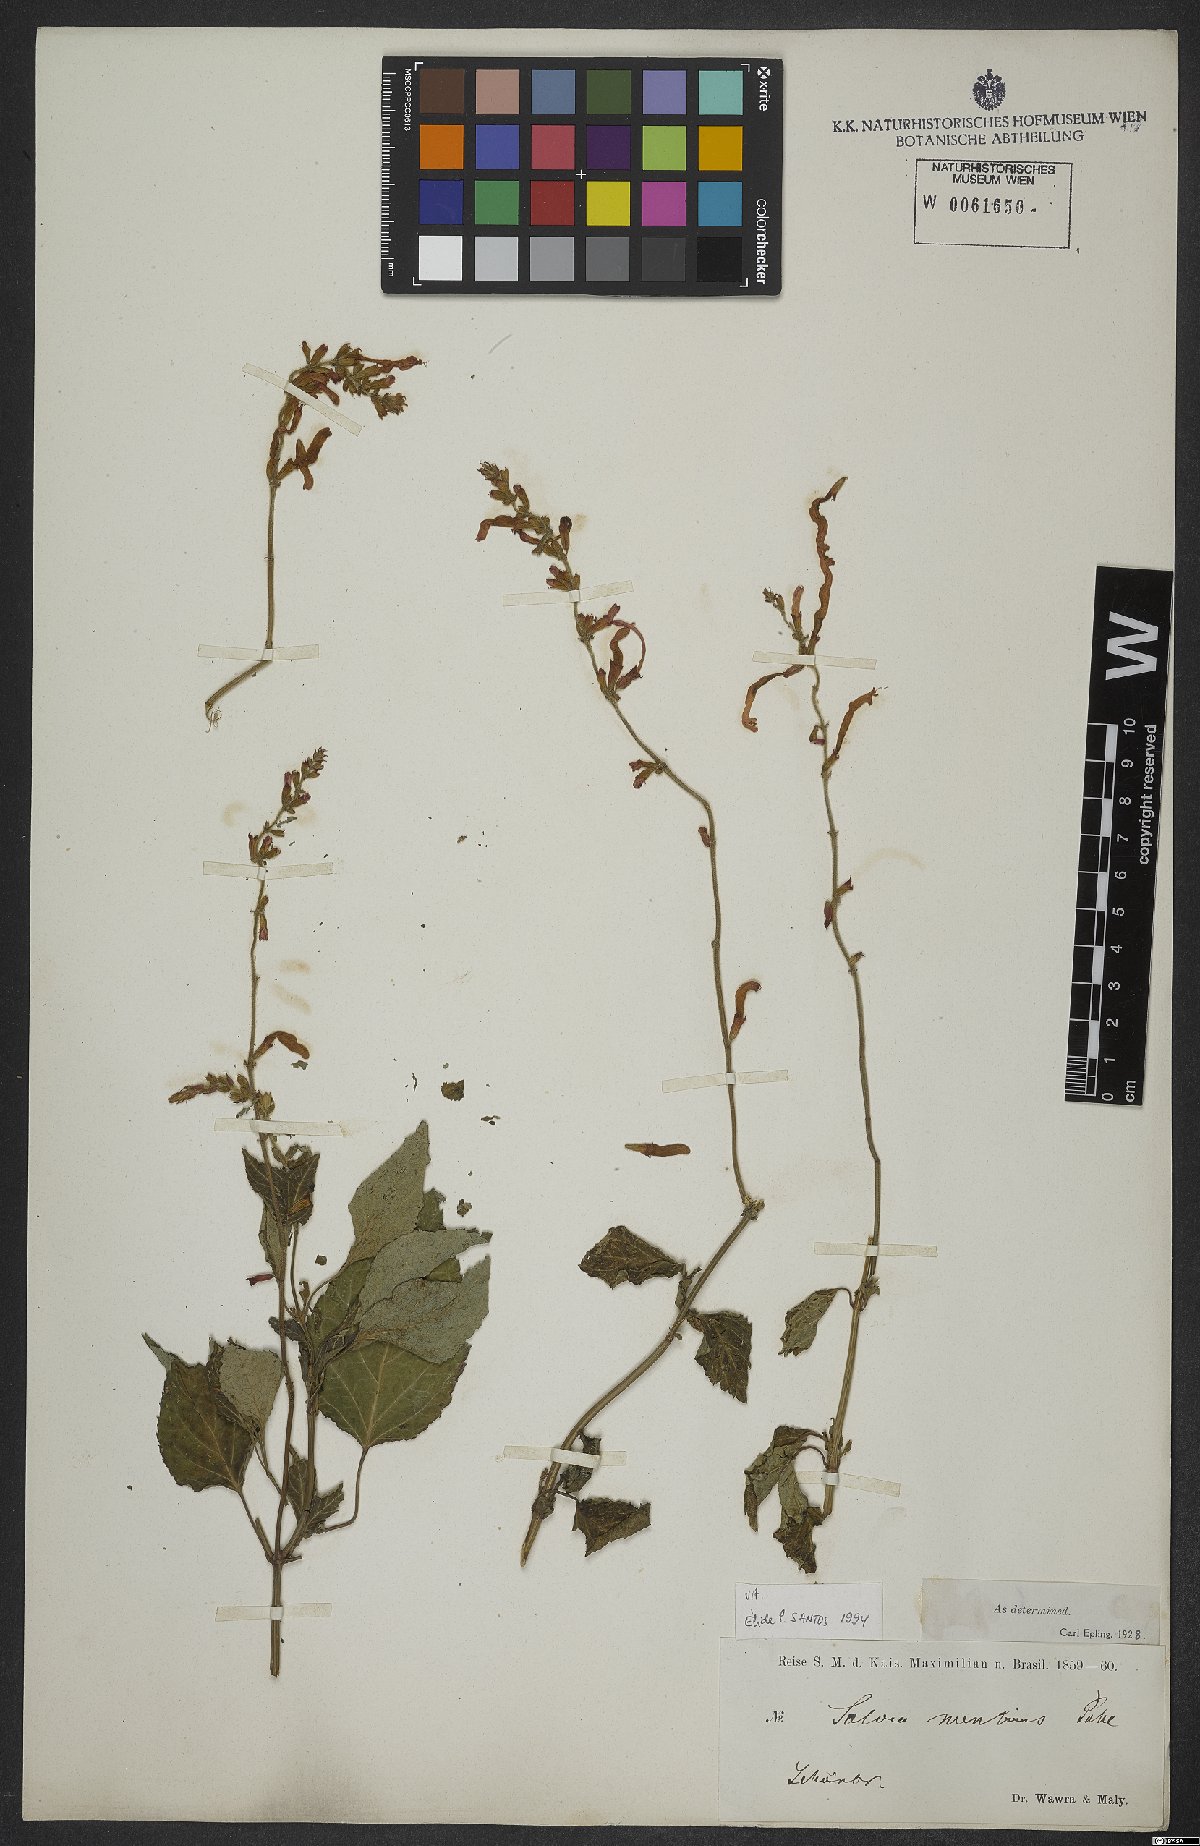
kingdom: Plantae
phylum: Tracheophyta
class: Magnoliopsida
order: Lamiales
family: Lamiaceae
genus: Salvia
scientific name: Salvia mentiens
